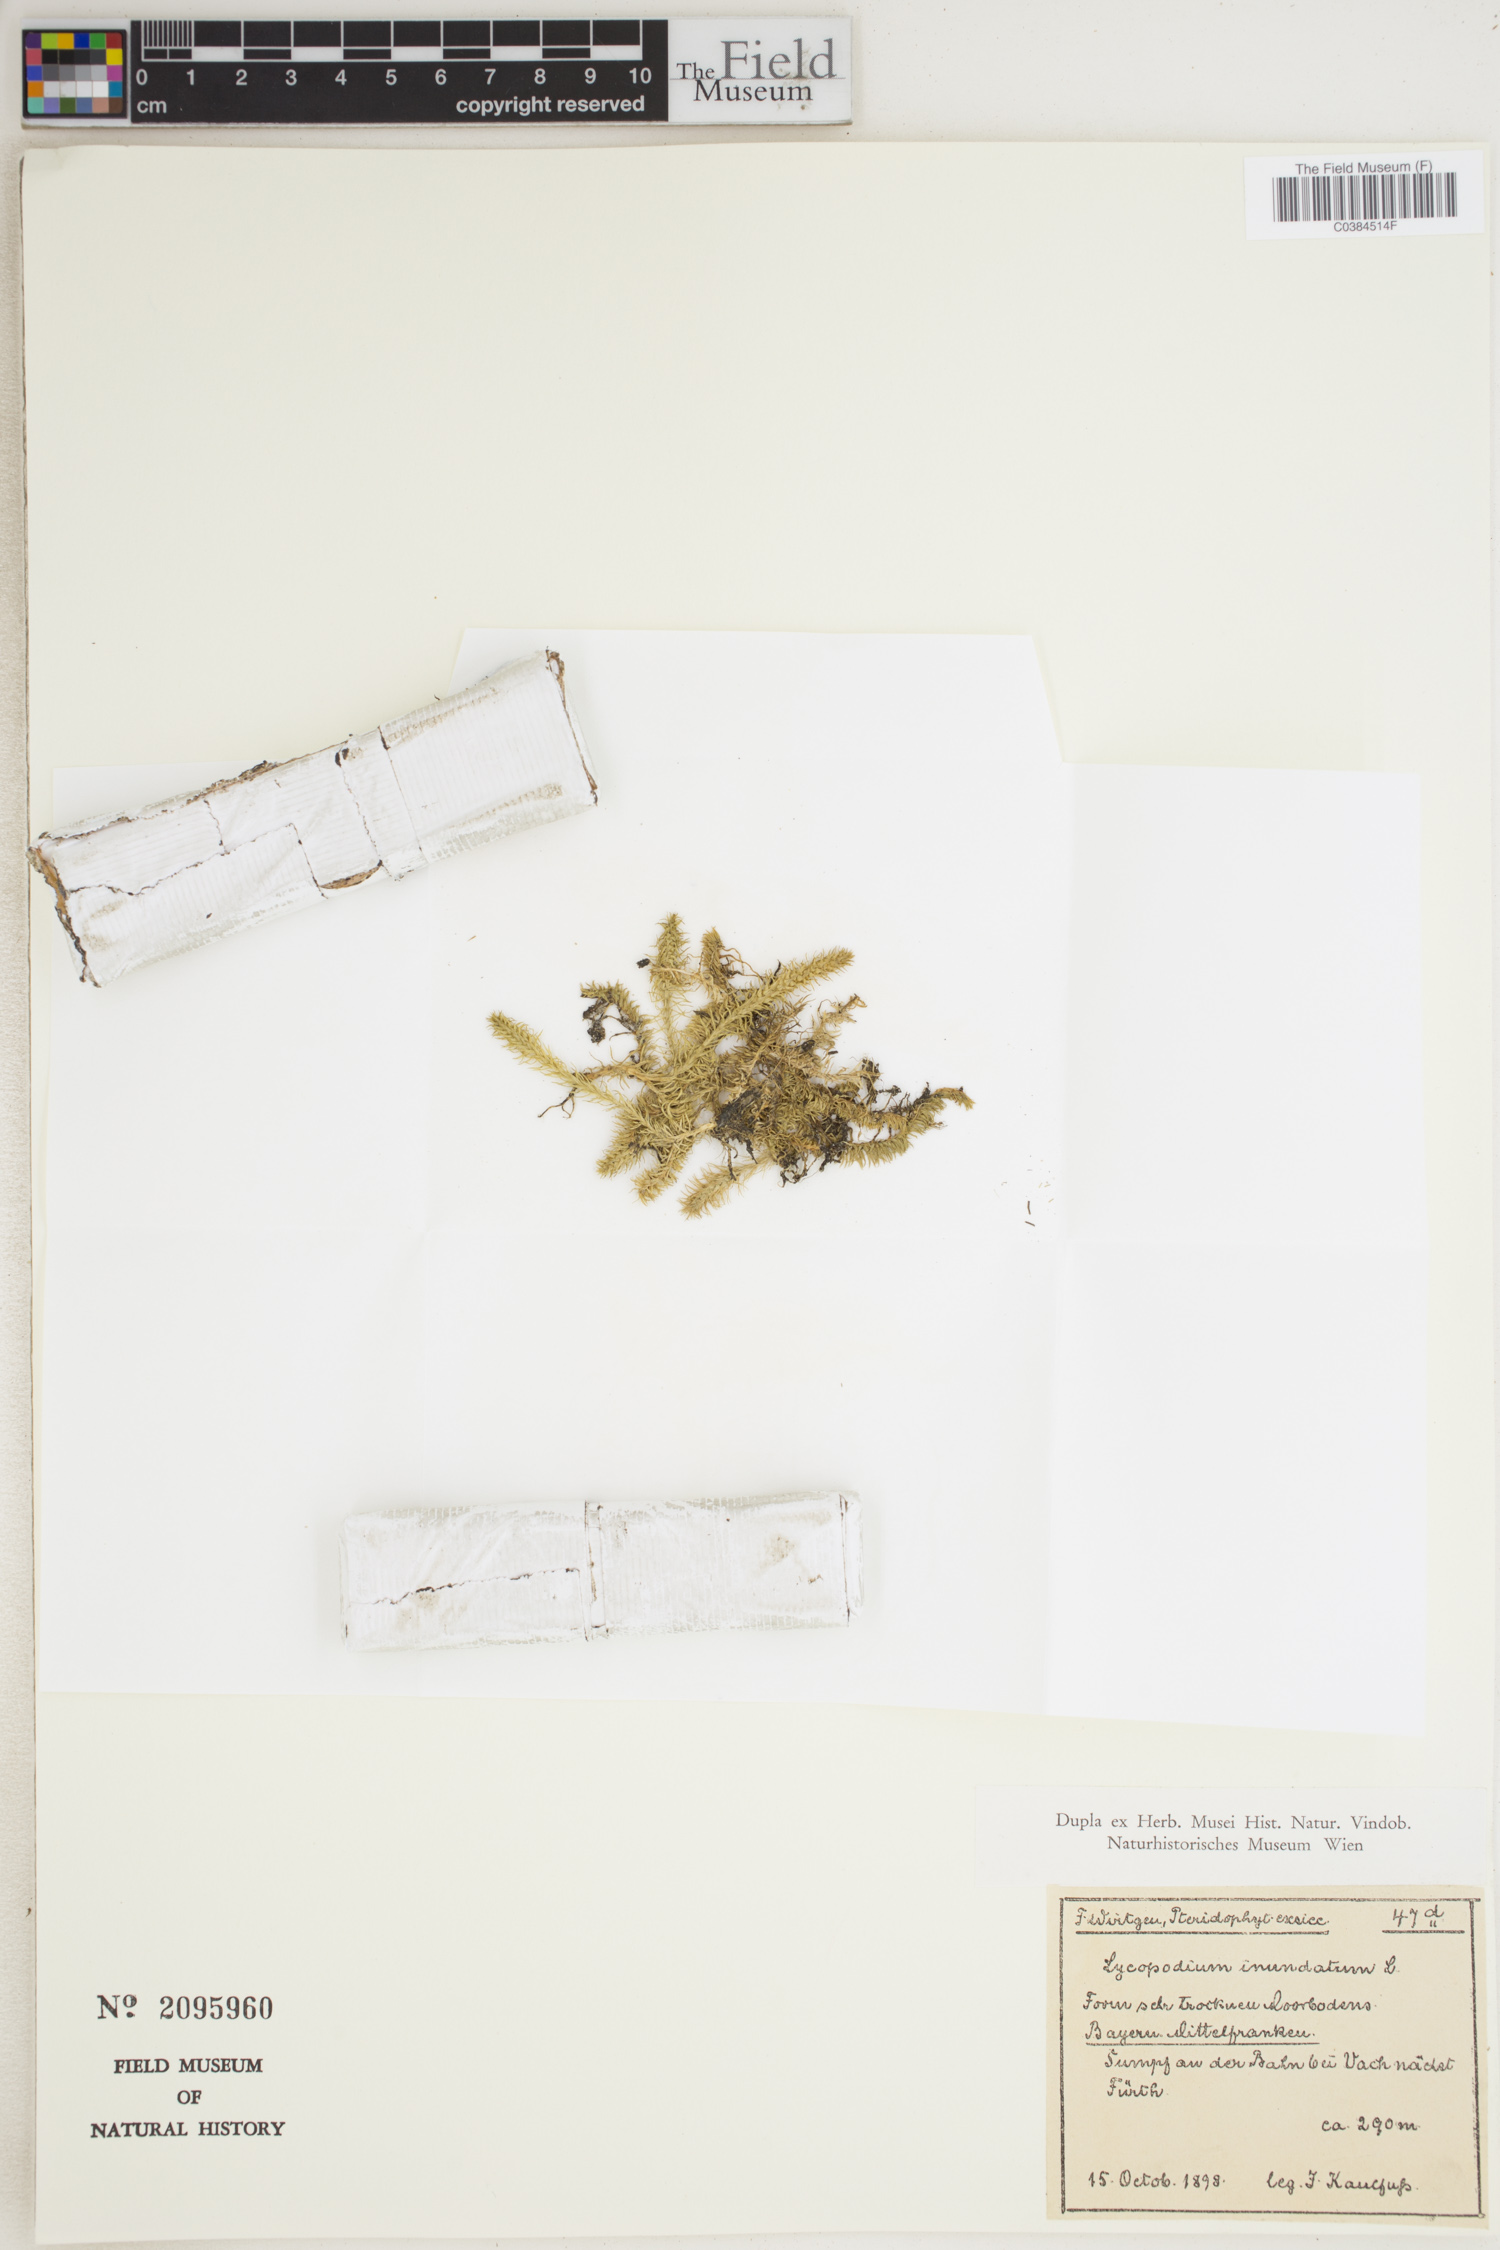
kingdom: Plantae
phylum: Tracheophyta
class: Lycopodiopsida
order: Lycopodiales
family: Lycopodiaceae
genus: Lycopodiella
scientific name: Lycopodiella inundata
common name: Marsh clubmoss
